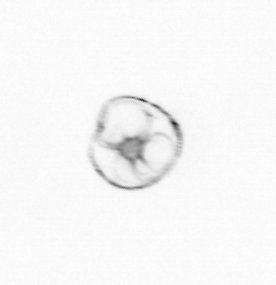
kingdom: Chromista
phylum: Myzozoa
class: Dinophyceae
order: Noctilucales
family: Noctilucaceae
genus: Noctiluca
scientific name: Noctiluca scintillans
